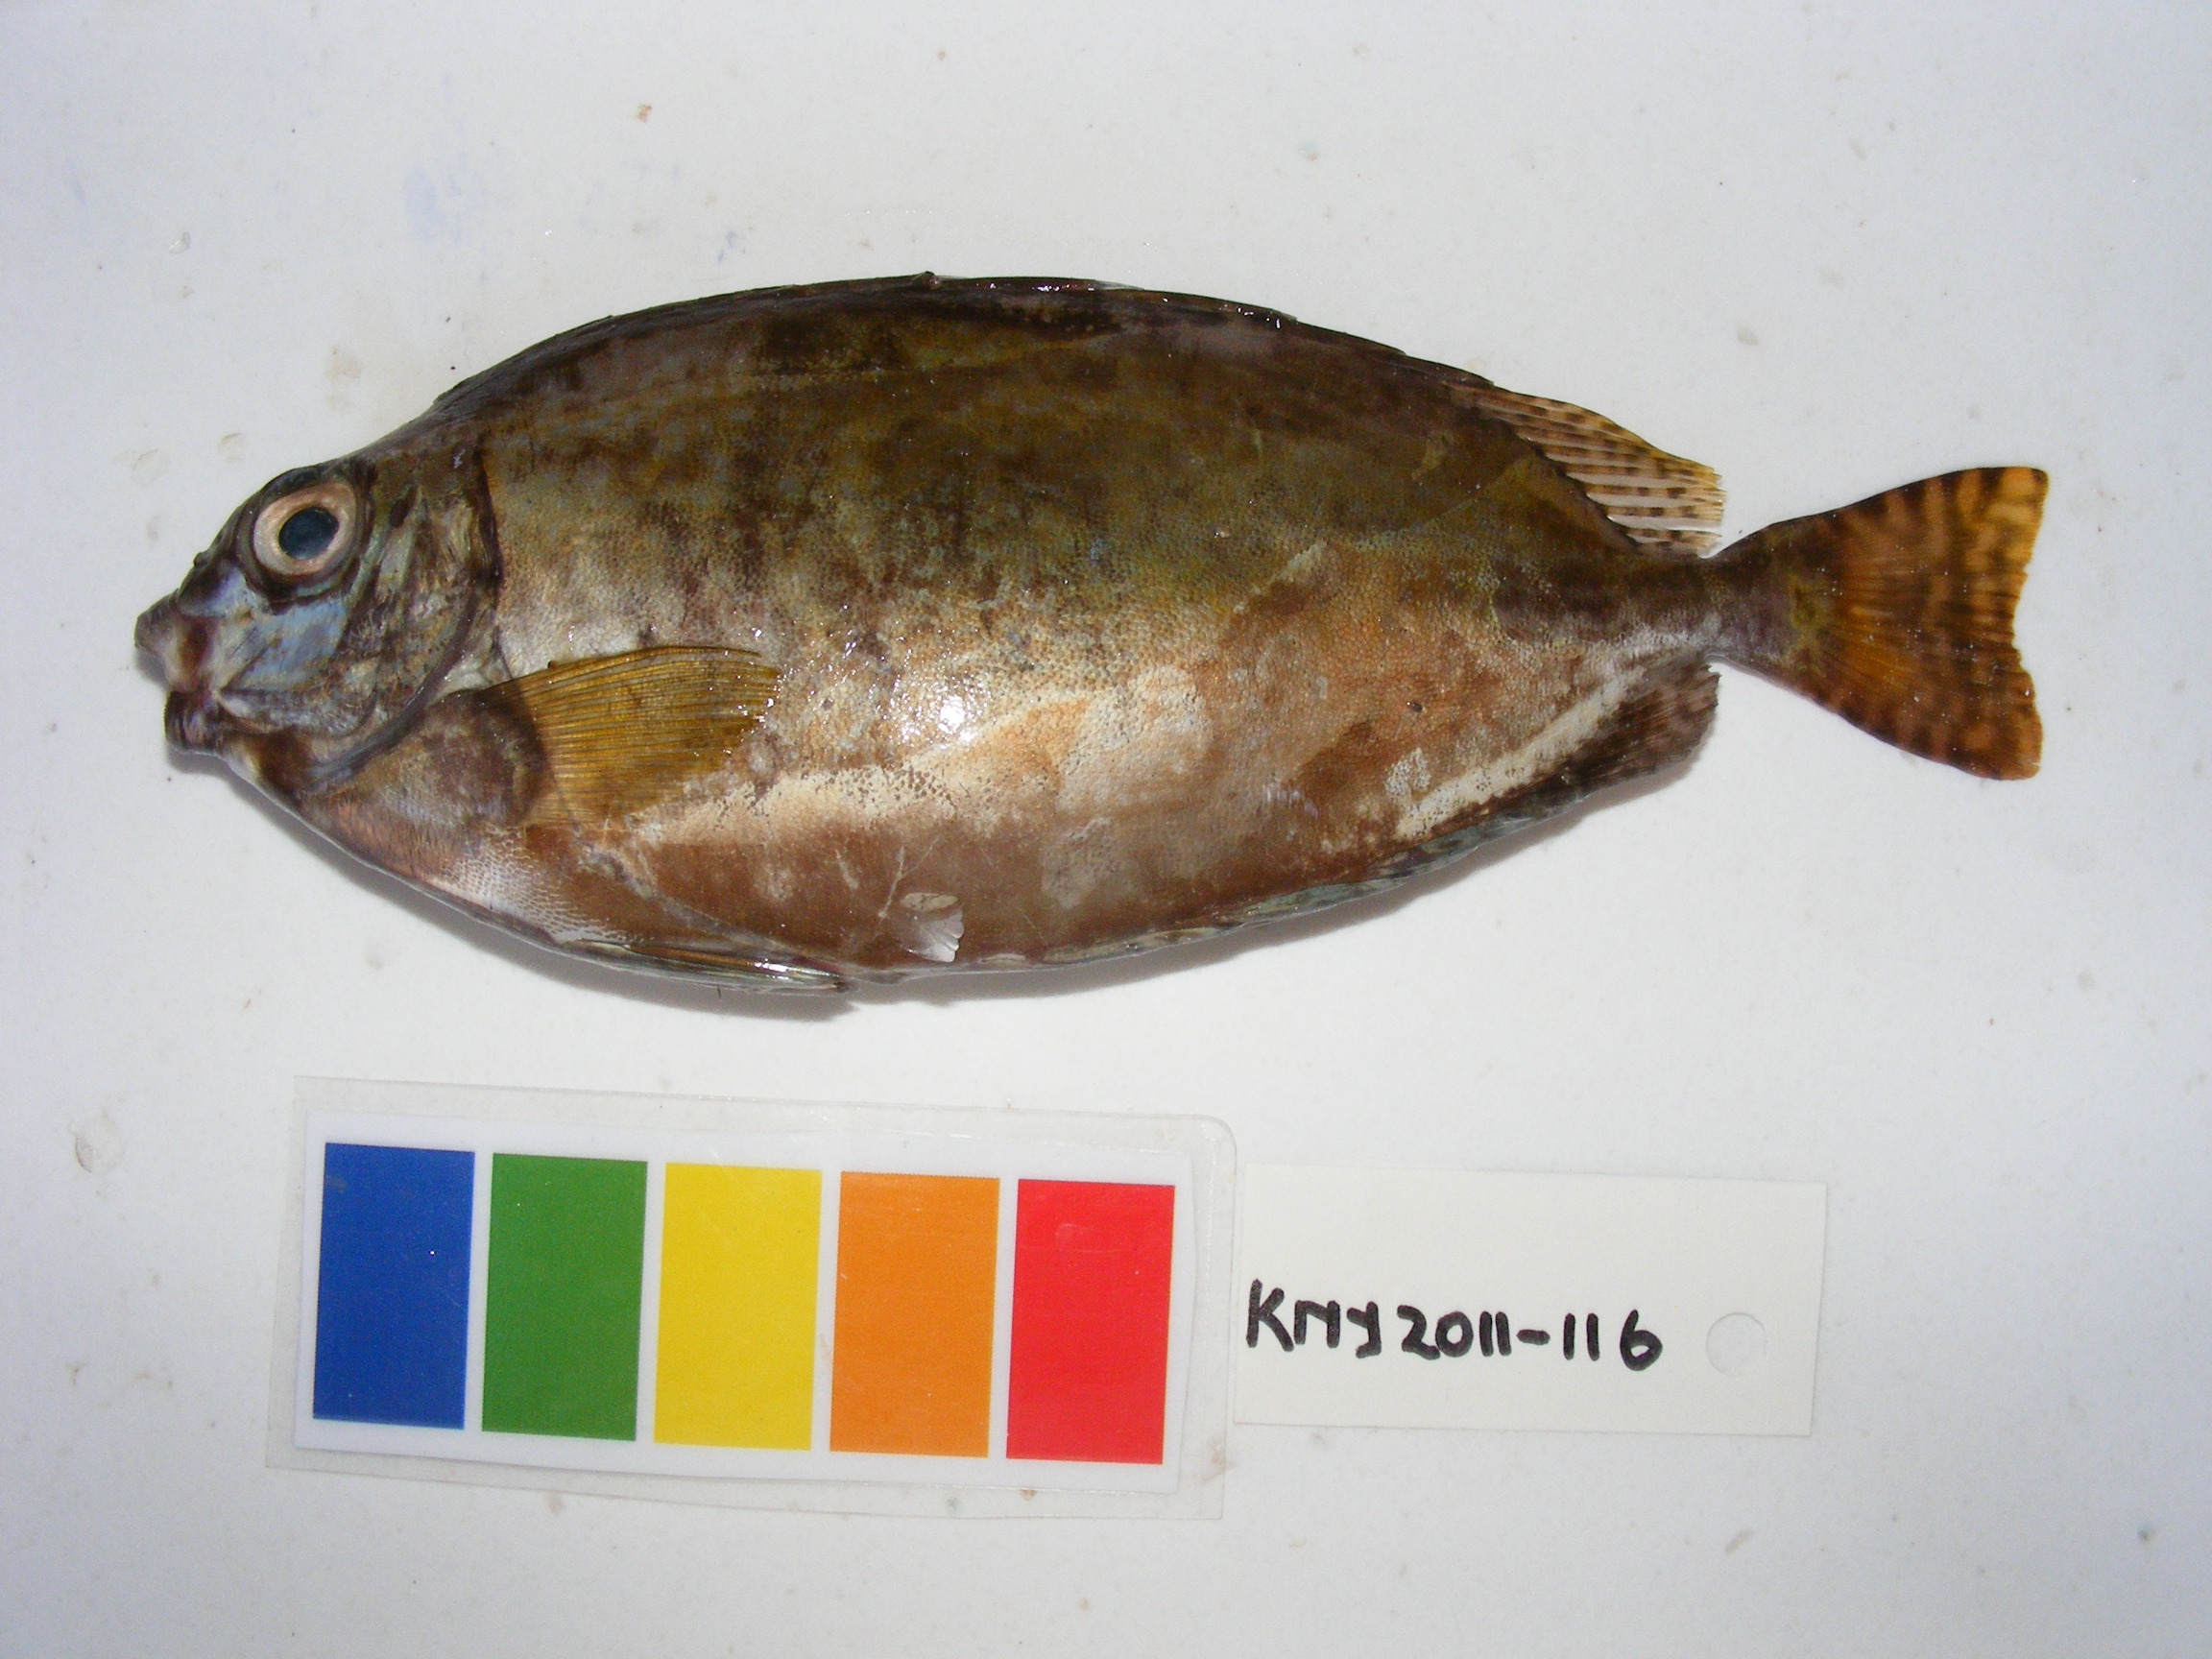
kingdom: Animalia
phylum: Chordata
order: Perciformes
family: Siganidae
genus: Siganus
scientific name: Siganus luridus
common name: Dusky spinefoot
